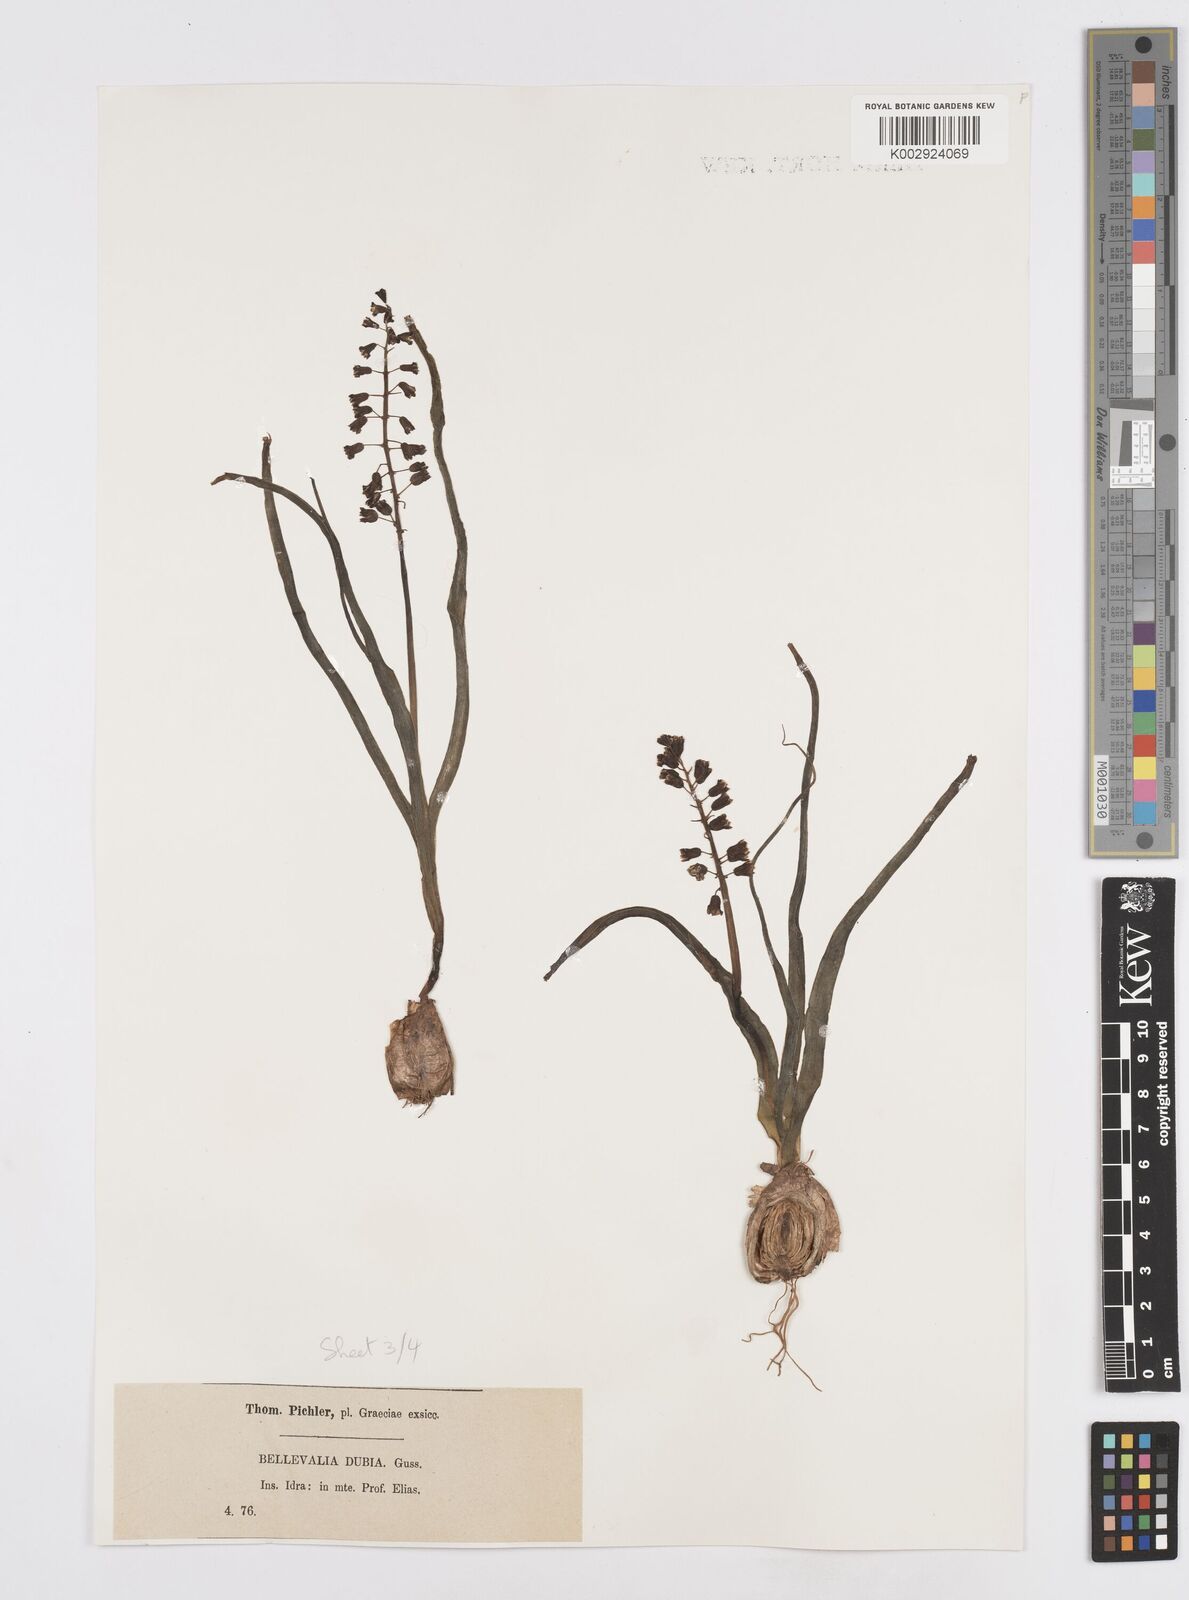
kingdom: Plantae
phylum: Tracheophyta
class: Liliopsida
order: Asparagales
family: Asparagaceae
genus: Bellevalia
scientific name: Bellevalia dubia
